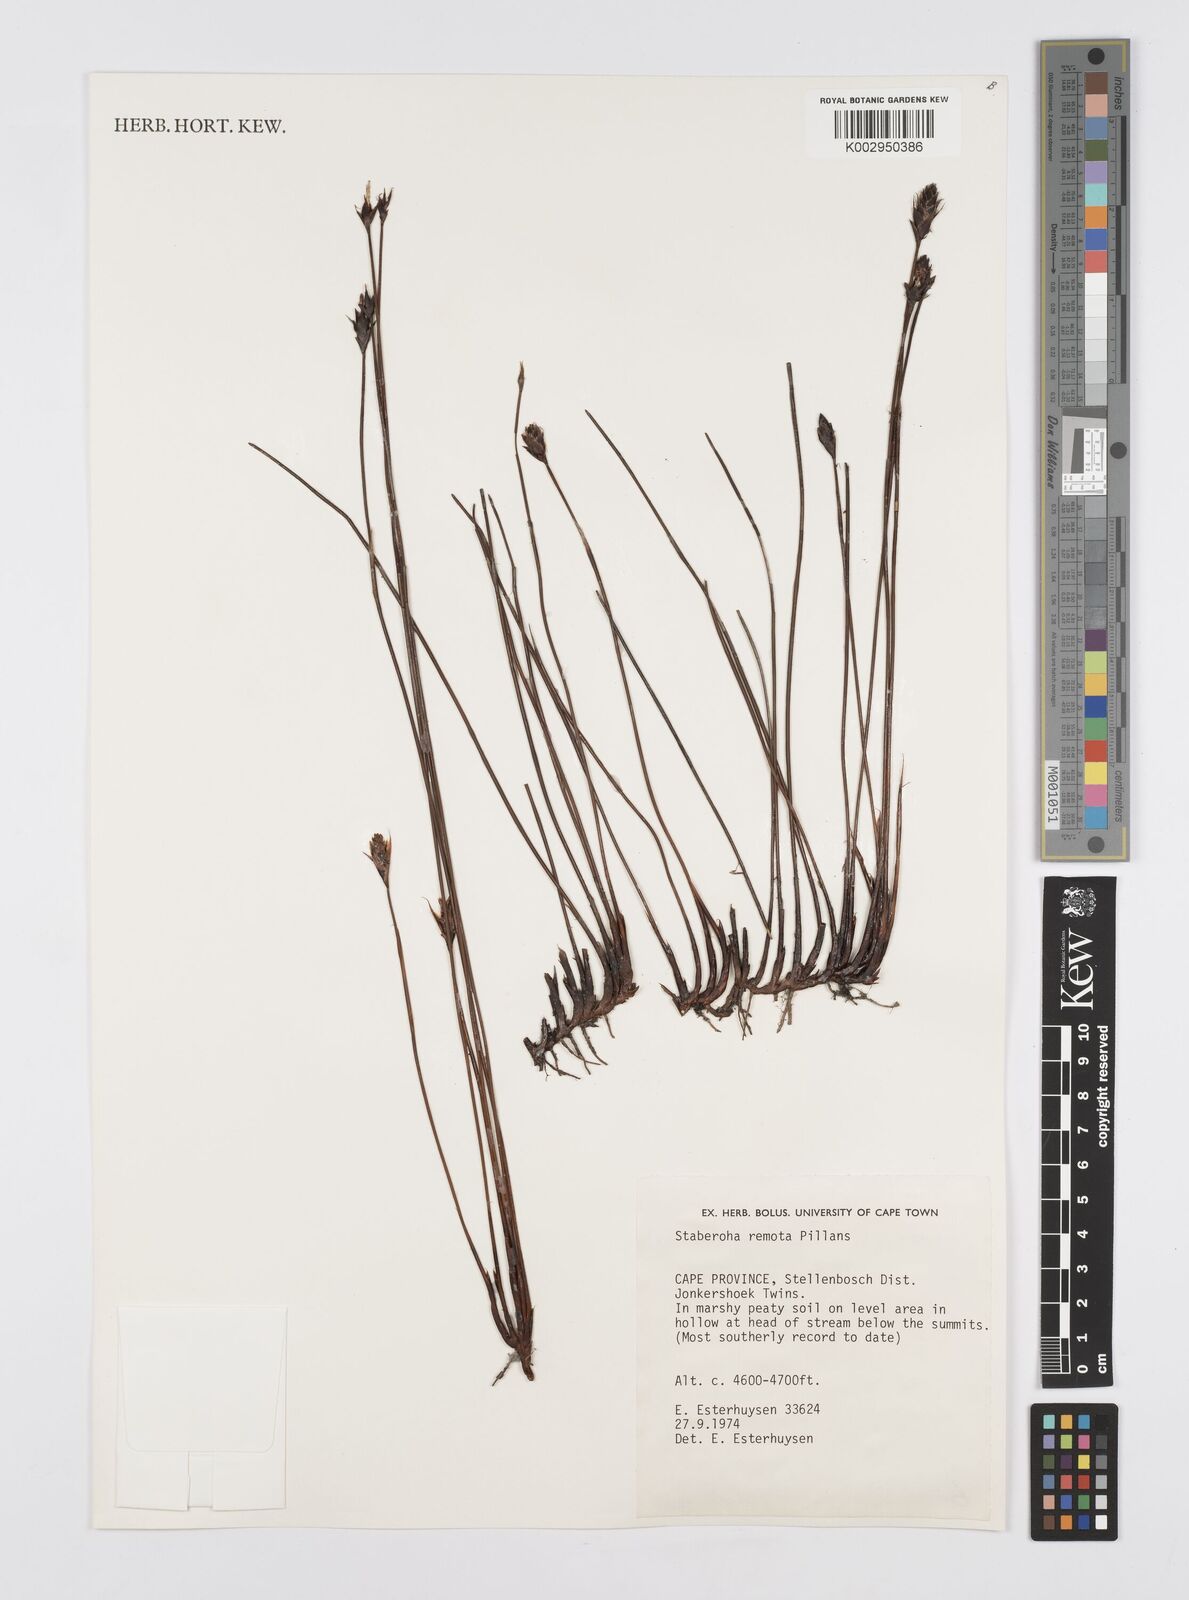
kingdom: Plantae
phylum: Tracheophyta
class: Liliopsida
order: Poales
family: Restionaceae
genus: Staberoha
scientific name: Staberoha remota
